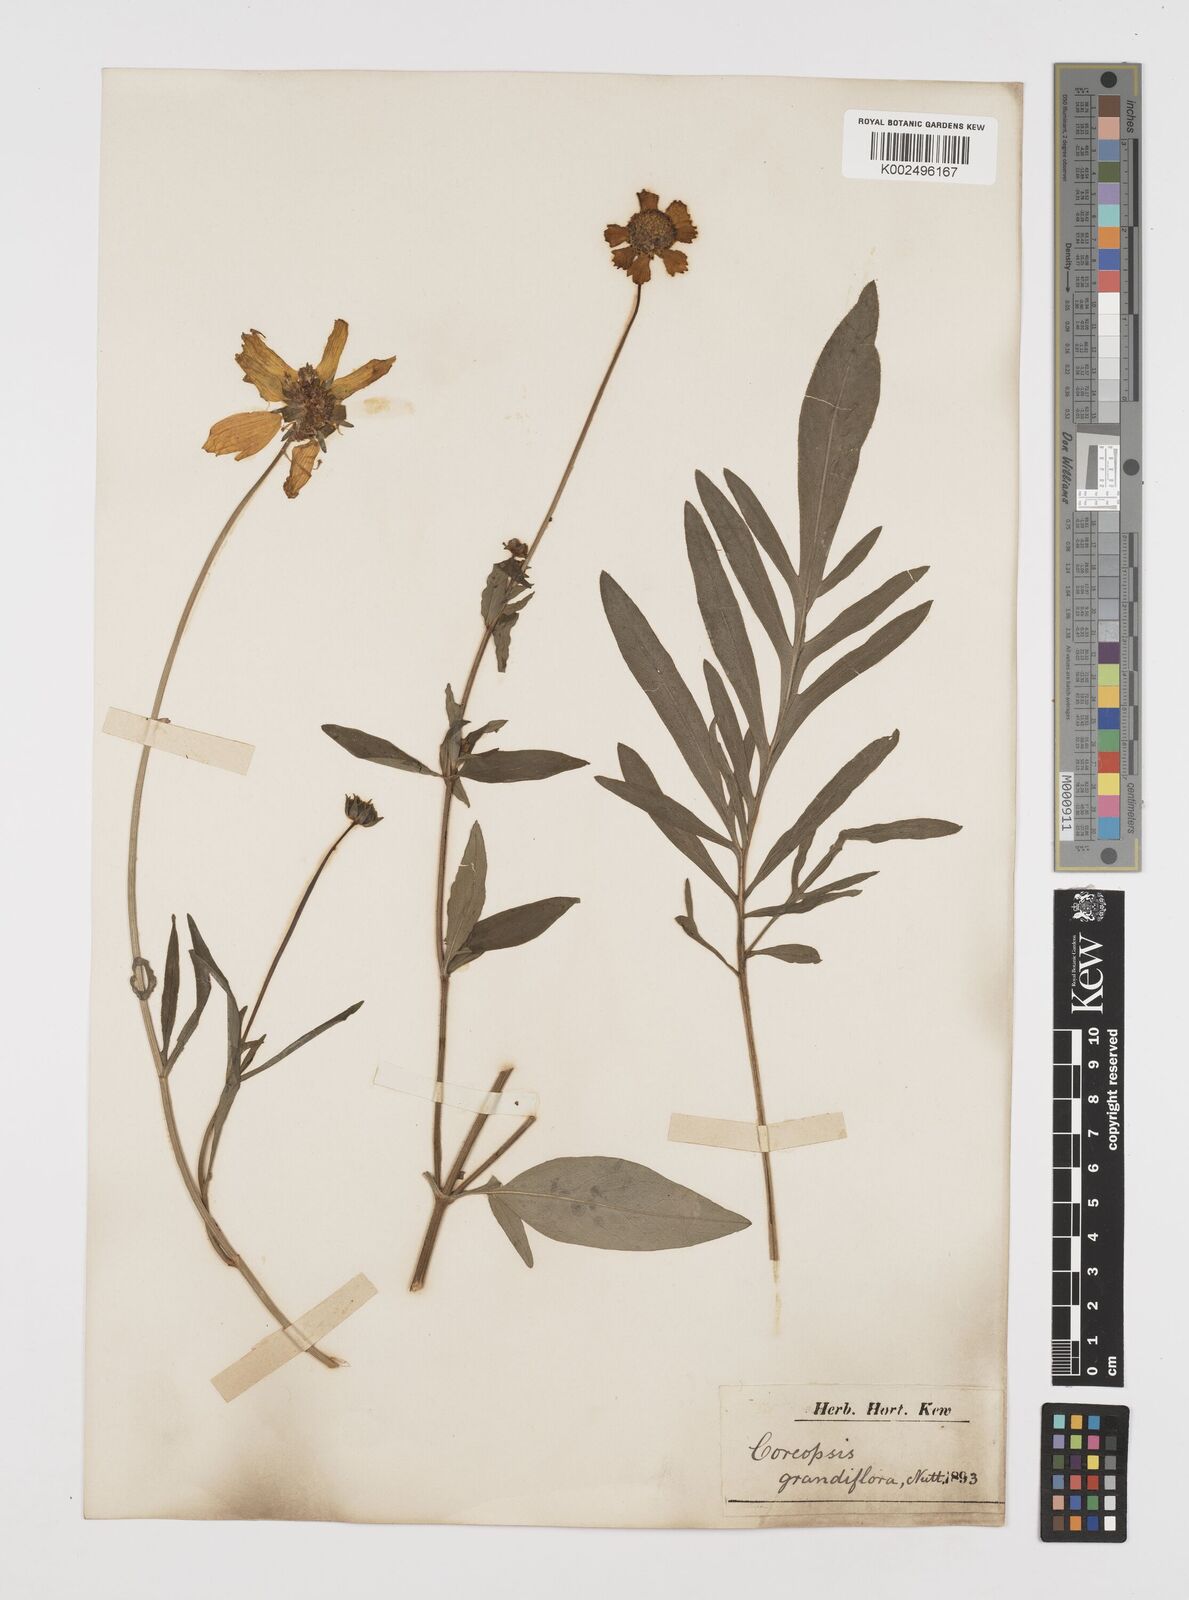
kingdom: Plantae
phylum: Tracheophyta
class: Magnoliopsida
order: Asterales
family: Asteraceae
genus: Coreopsis
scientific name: Coreopsis grandiflora
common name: Large-flowered tickseed
